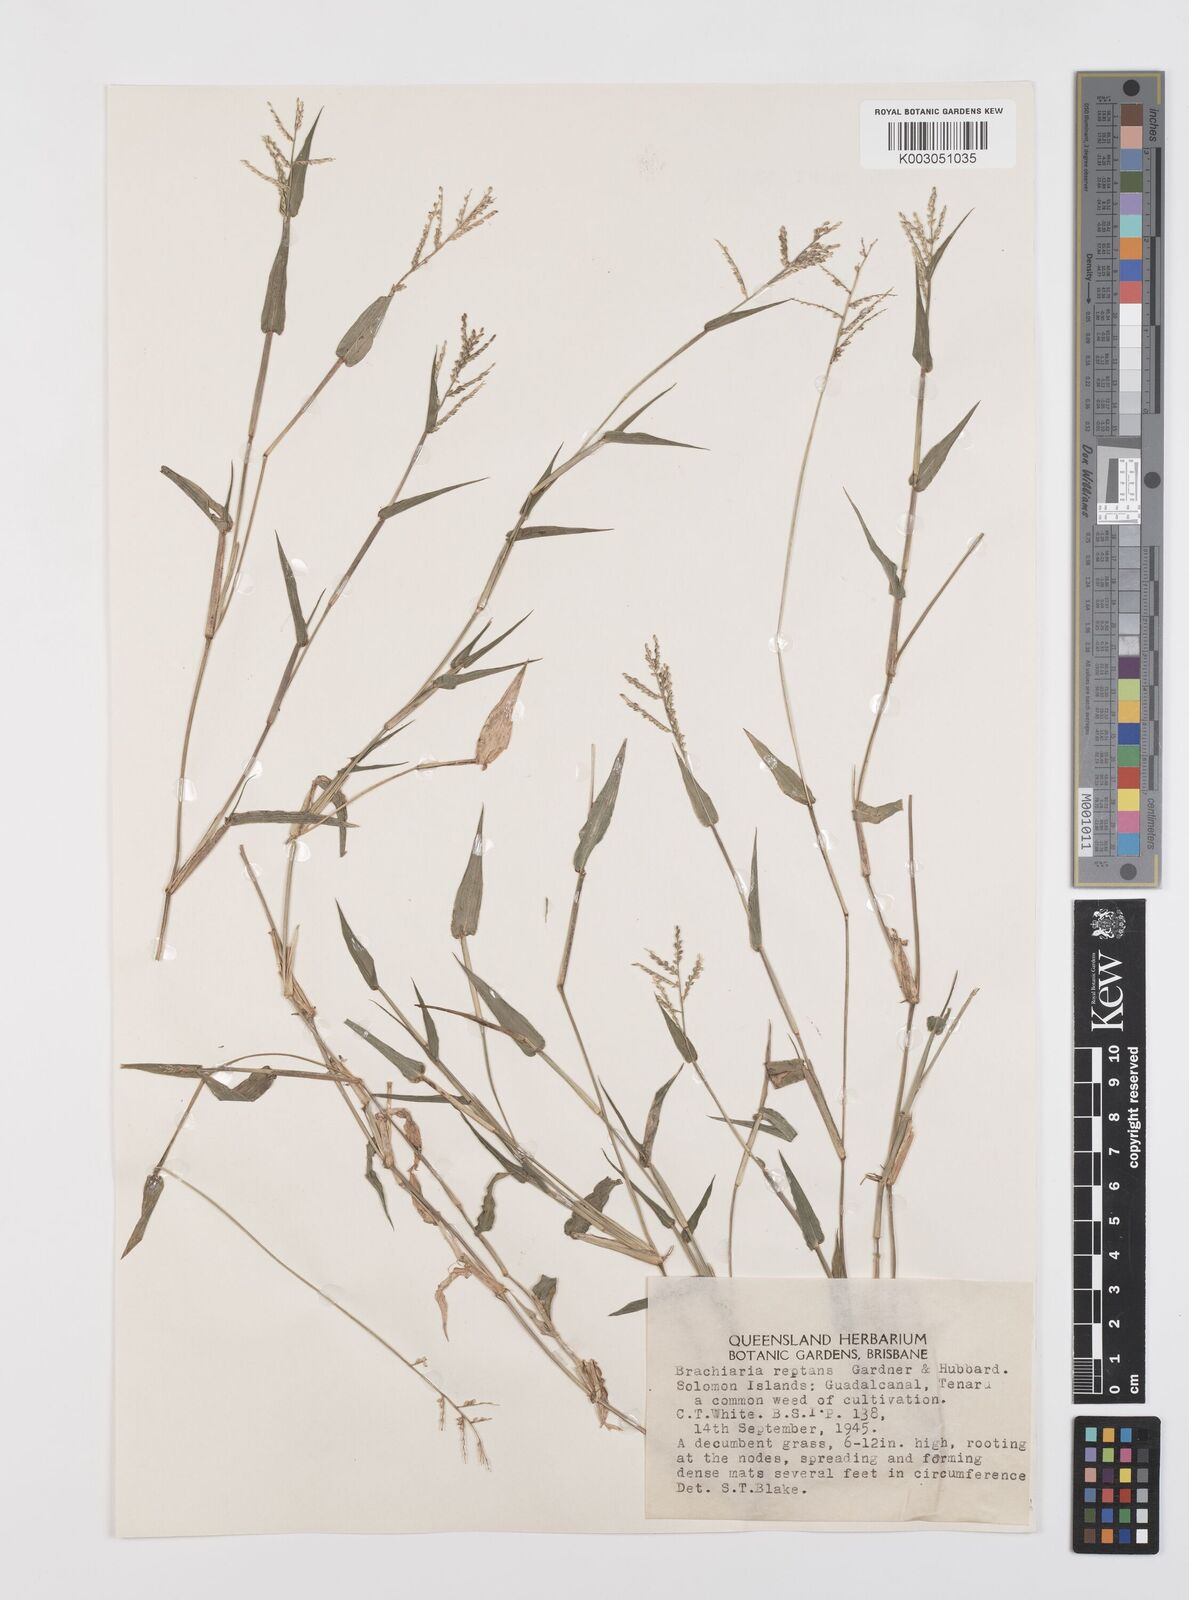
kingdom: Plantae
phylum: Tracheophyta
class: Liliopsida
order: Poales
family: Poaceae
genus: Urochloa
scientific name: Urochloa reptans
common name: Sprawling signalgrass
